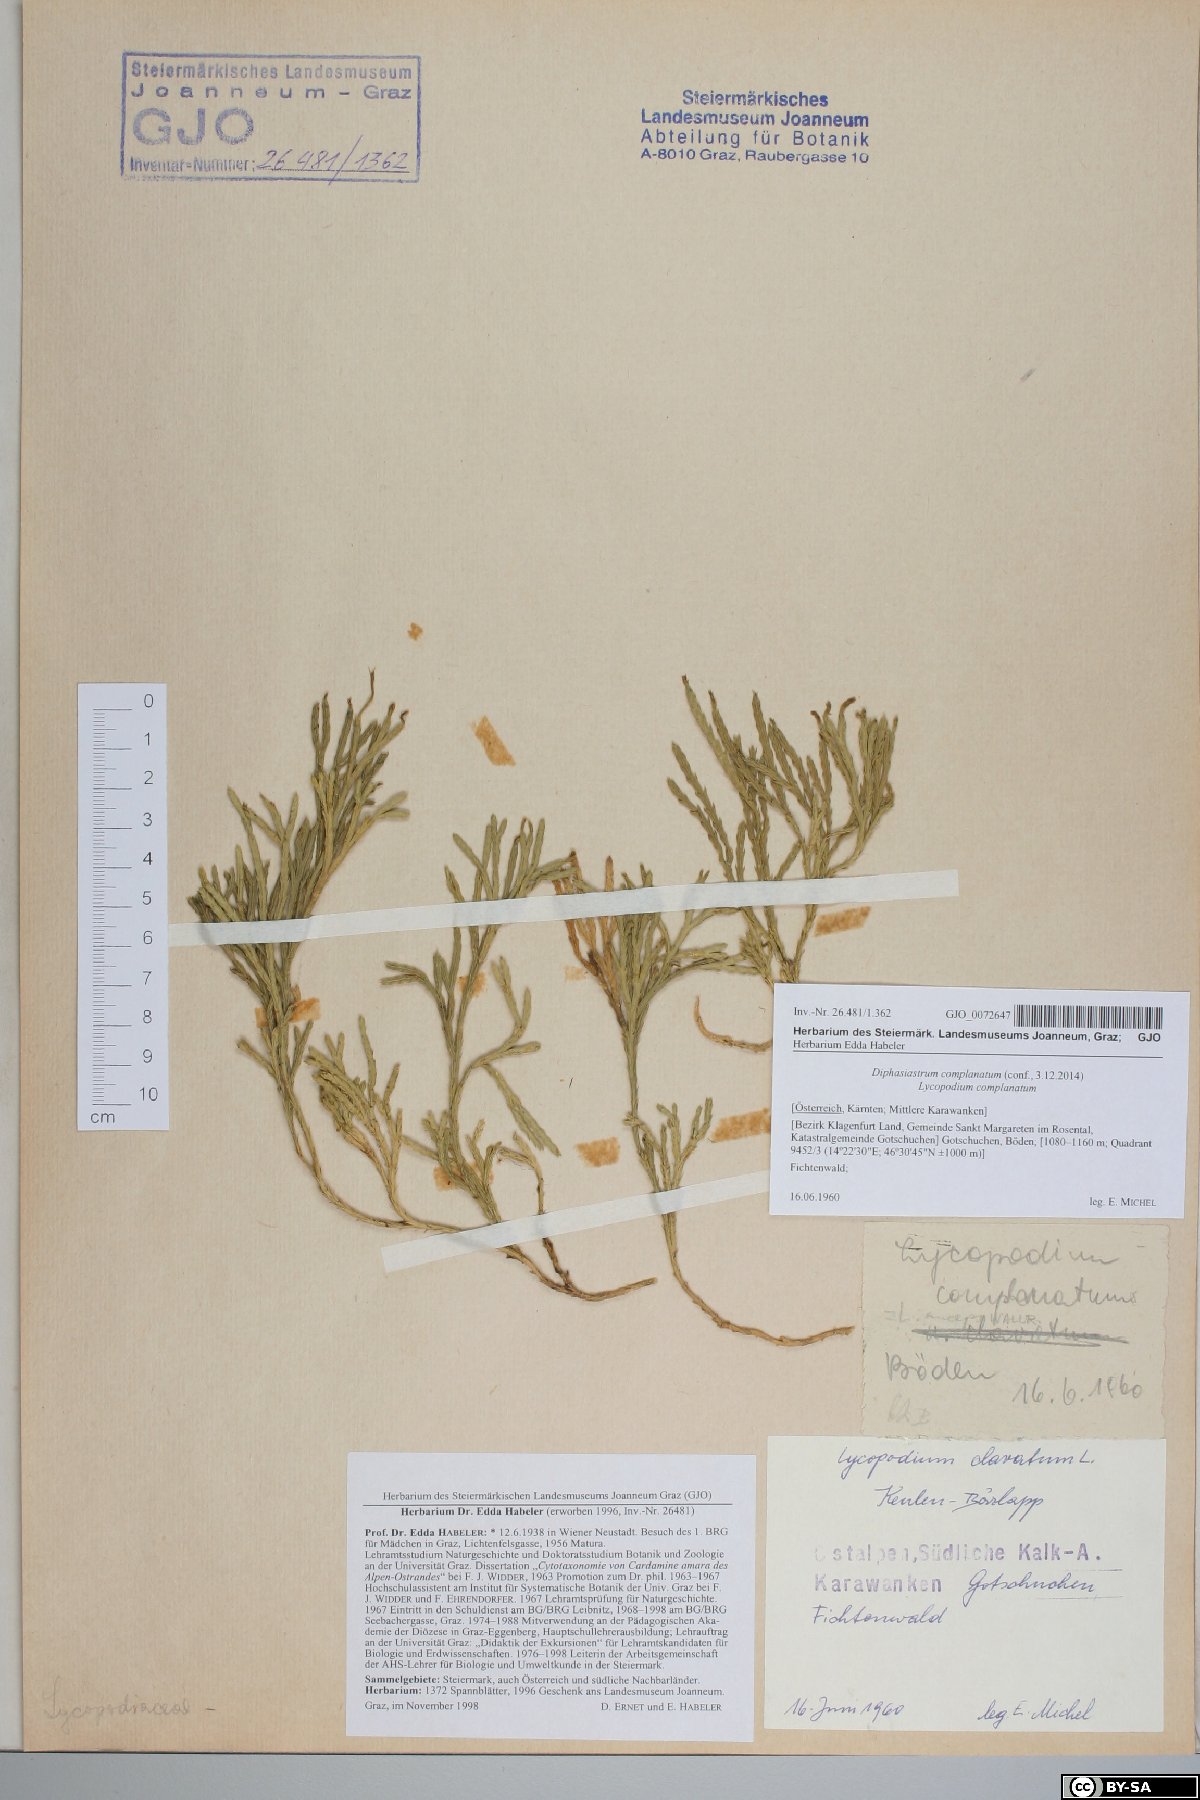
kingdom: Plantae
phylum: Tracheophyta
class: Lycopodiopsida
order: Lycopodiales
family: Lycopodiaceae
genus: Diphasiastrum
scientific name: Diphasiastrum complanatum
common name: Northern running-pine
